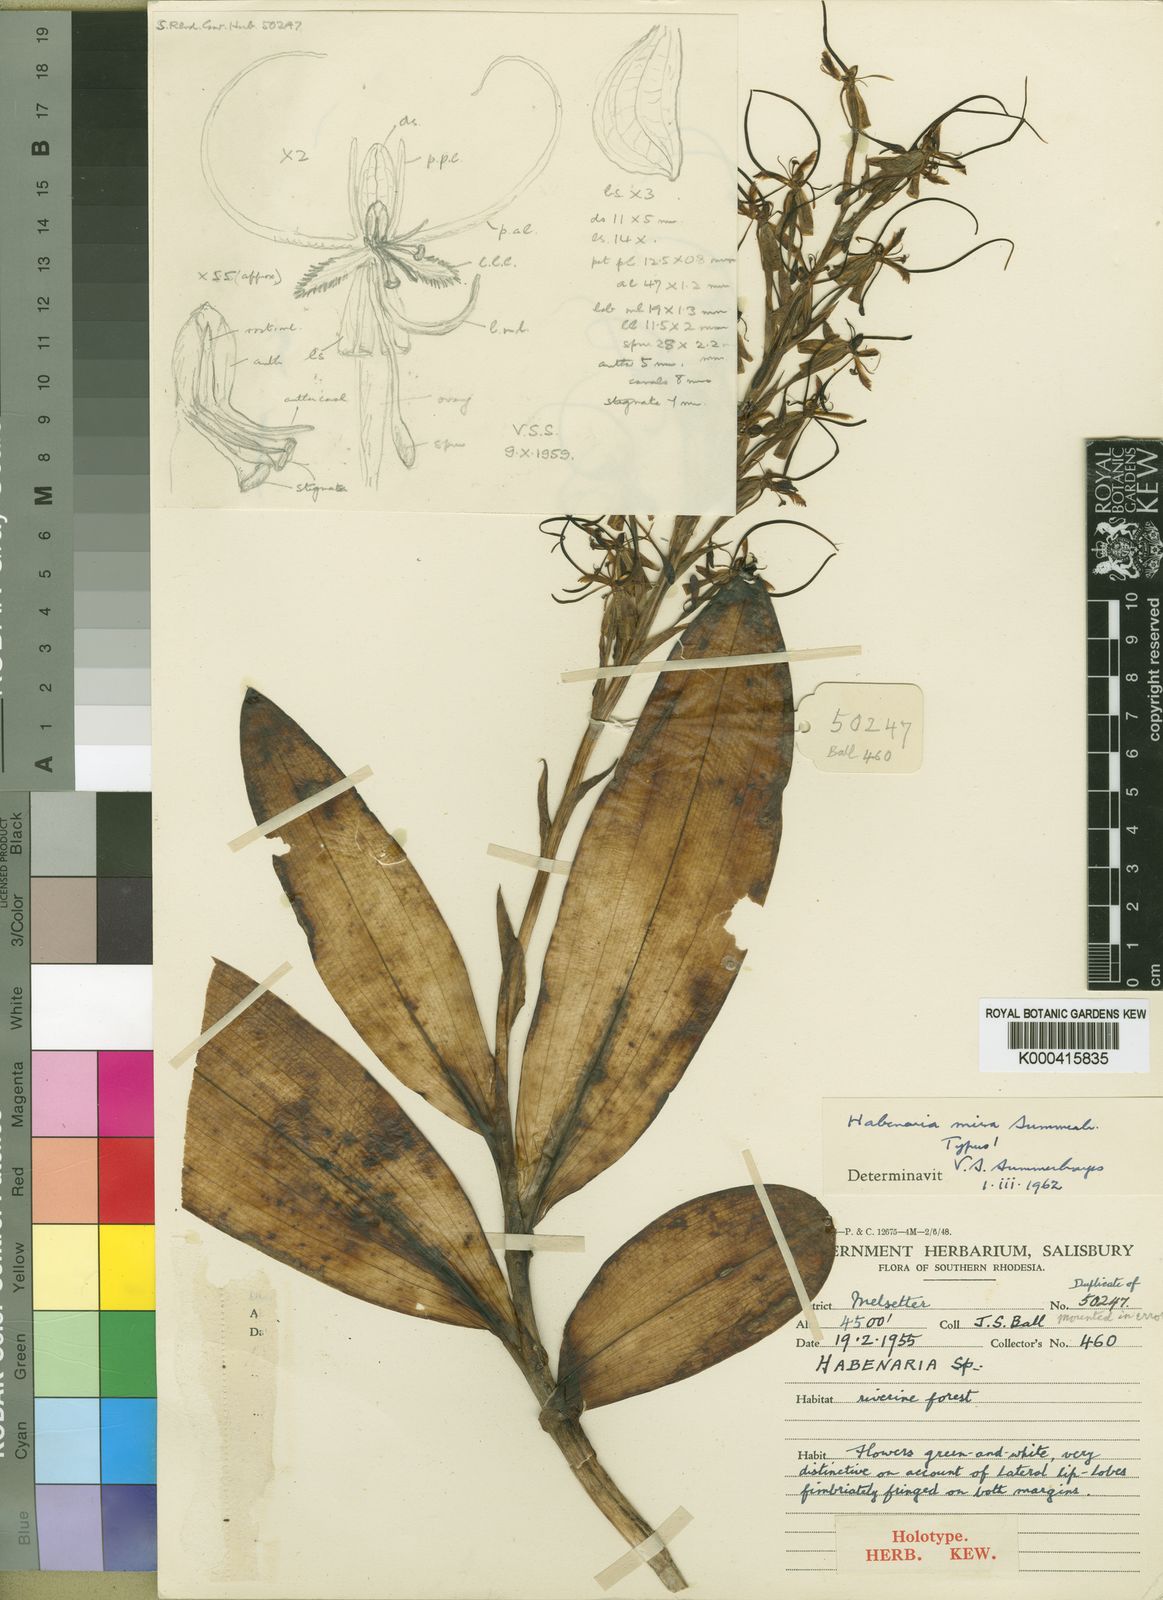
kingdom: Plantae
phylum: Tracheophyta
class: Liliopsida
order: Asparagales
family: Orchidaceae
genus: Habenaria
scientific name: Habenaria mira
